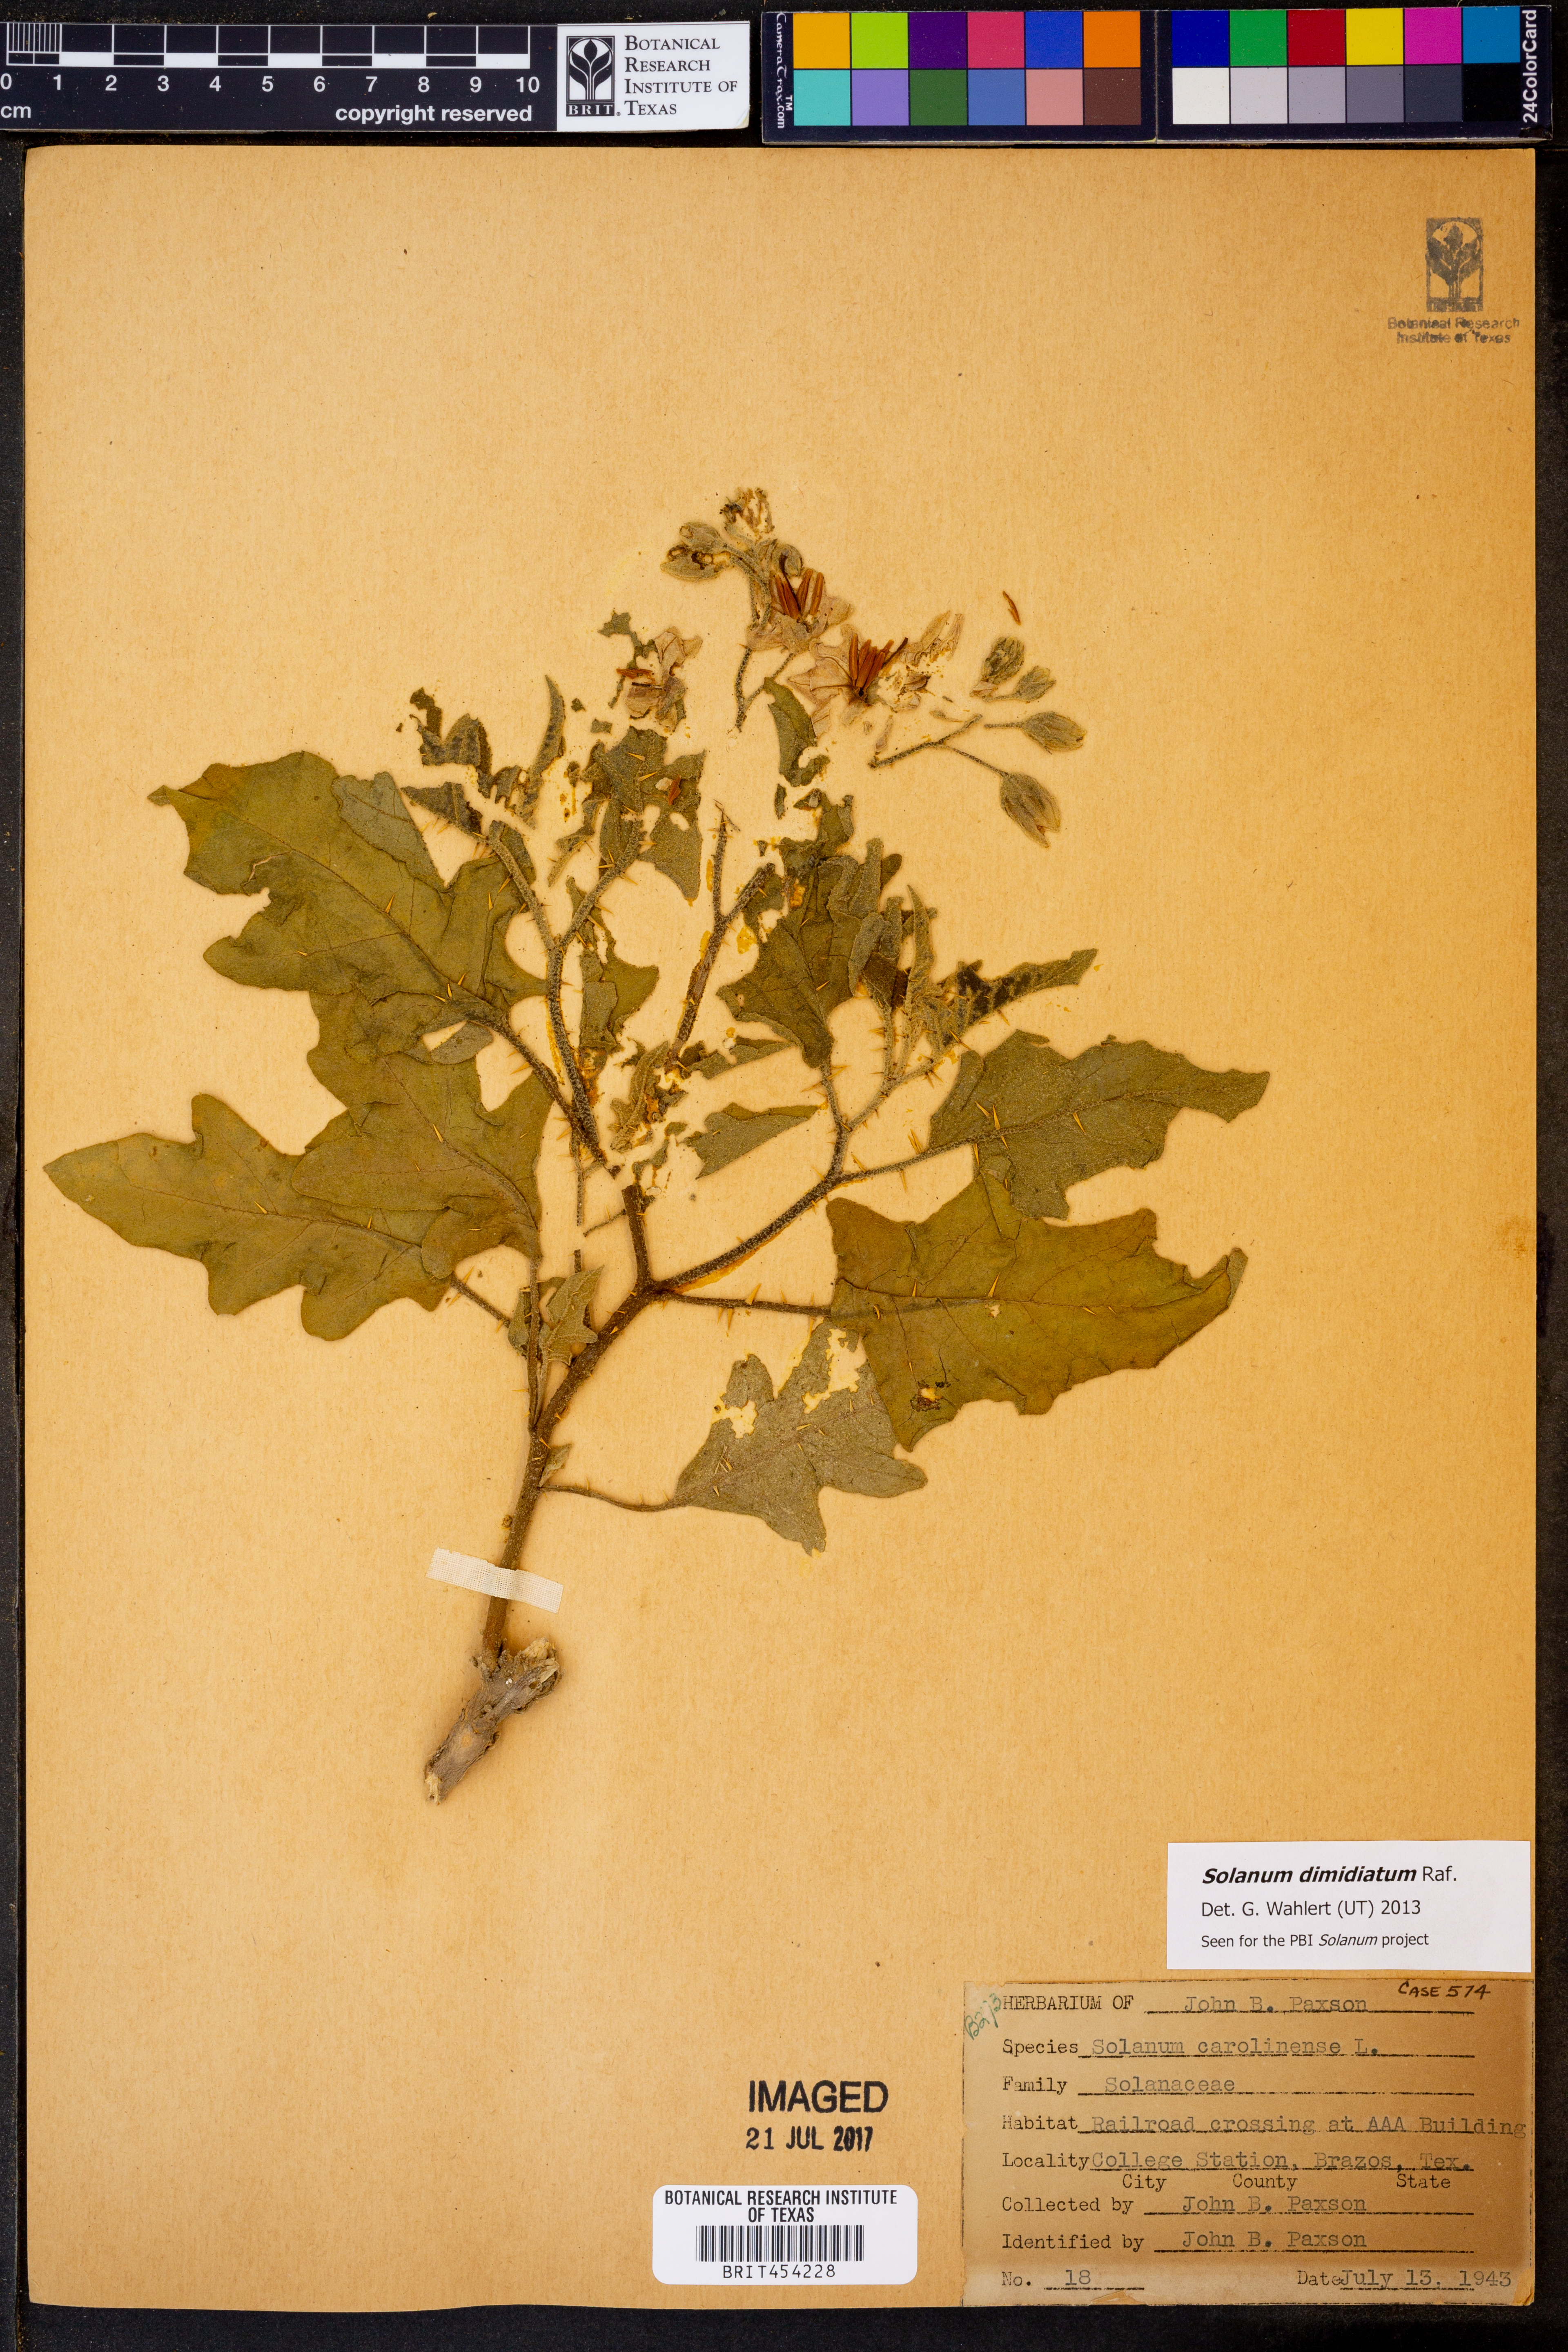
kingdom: Plantae
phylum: Tracheophyta
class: Magnoliopsida
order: Solanales
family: Solanaceae
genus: Solanum
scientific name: Solanum dimidiatum
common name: Carolina horse-nettle
